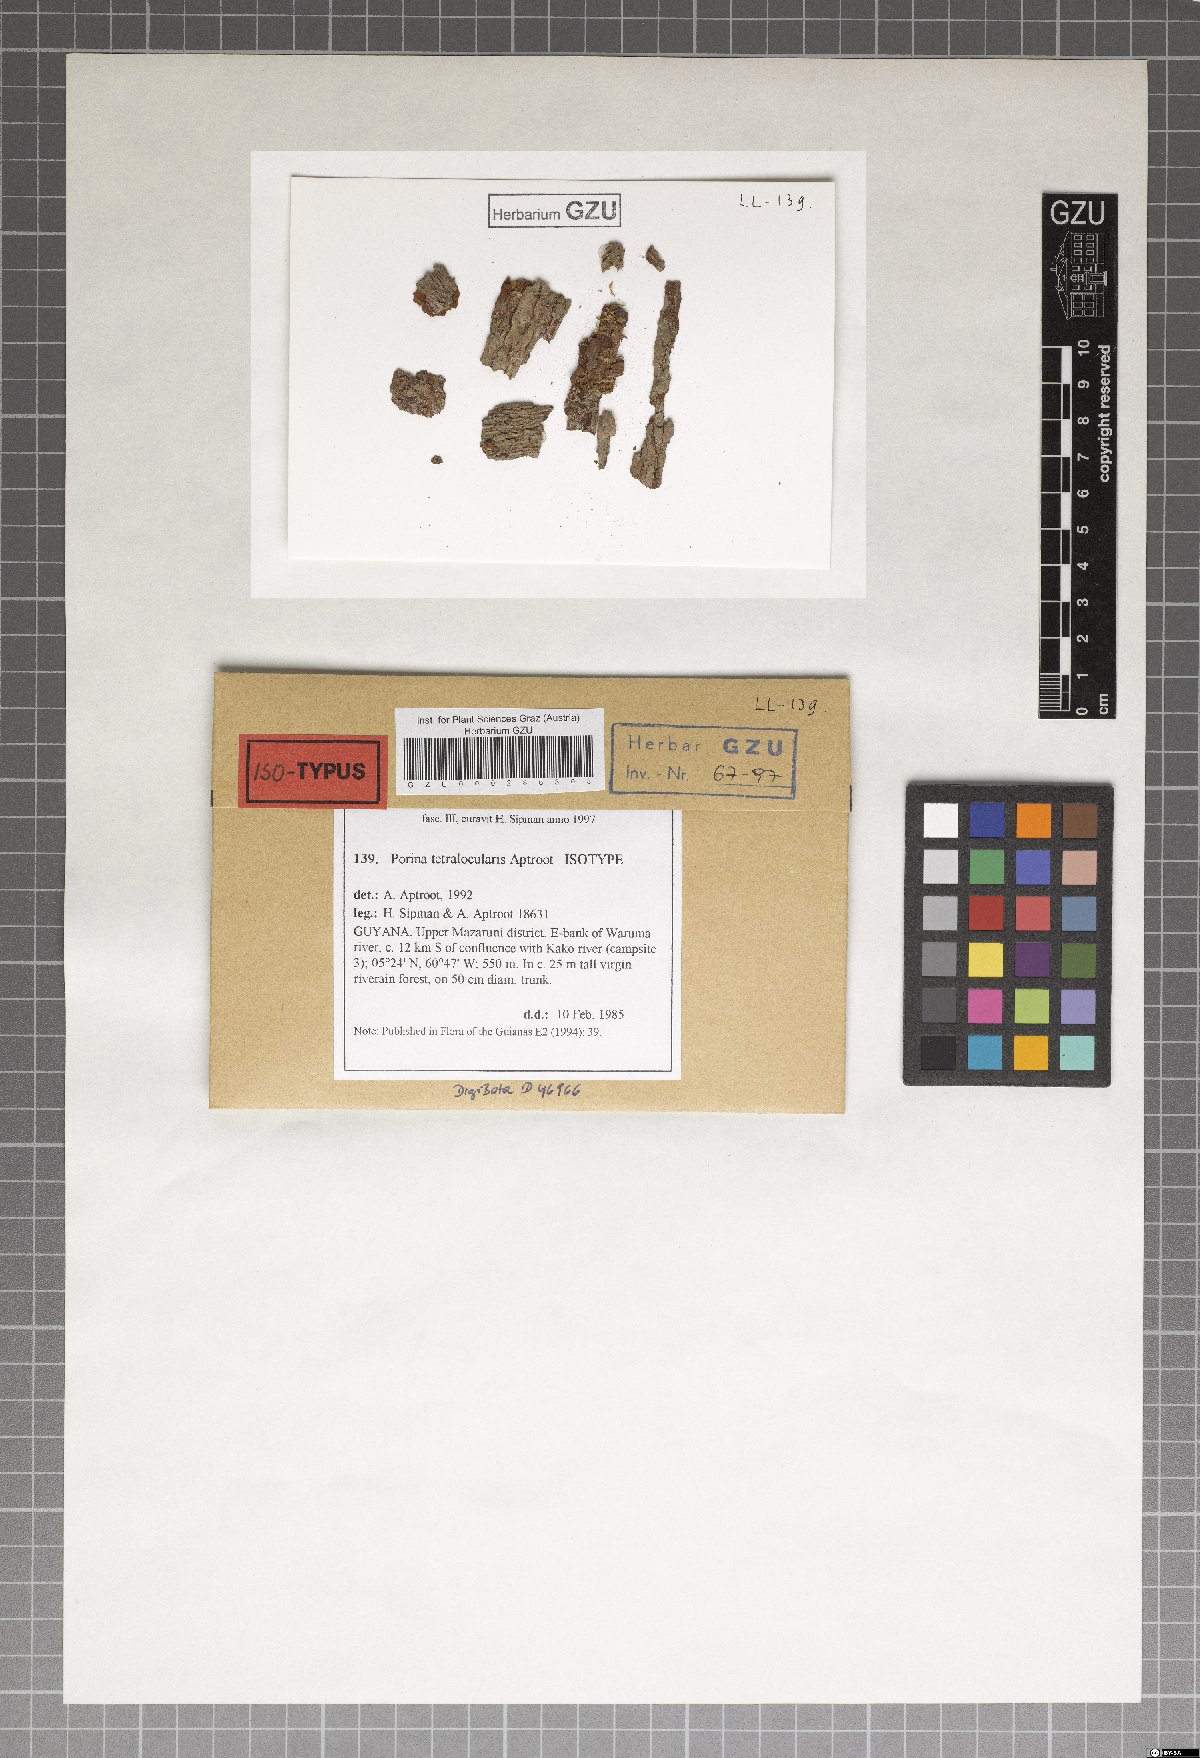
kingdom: Fungi
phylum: Ascomycota
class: Lecanoromycetes
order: Pertusariales
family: Pertusariaceae
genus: Porina
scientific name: Porina tetralocularis
